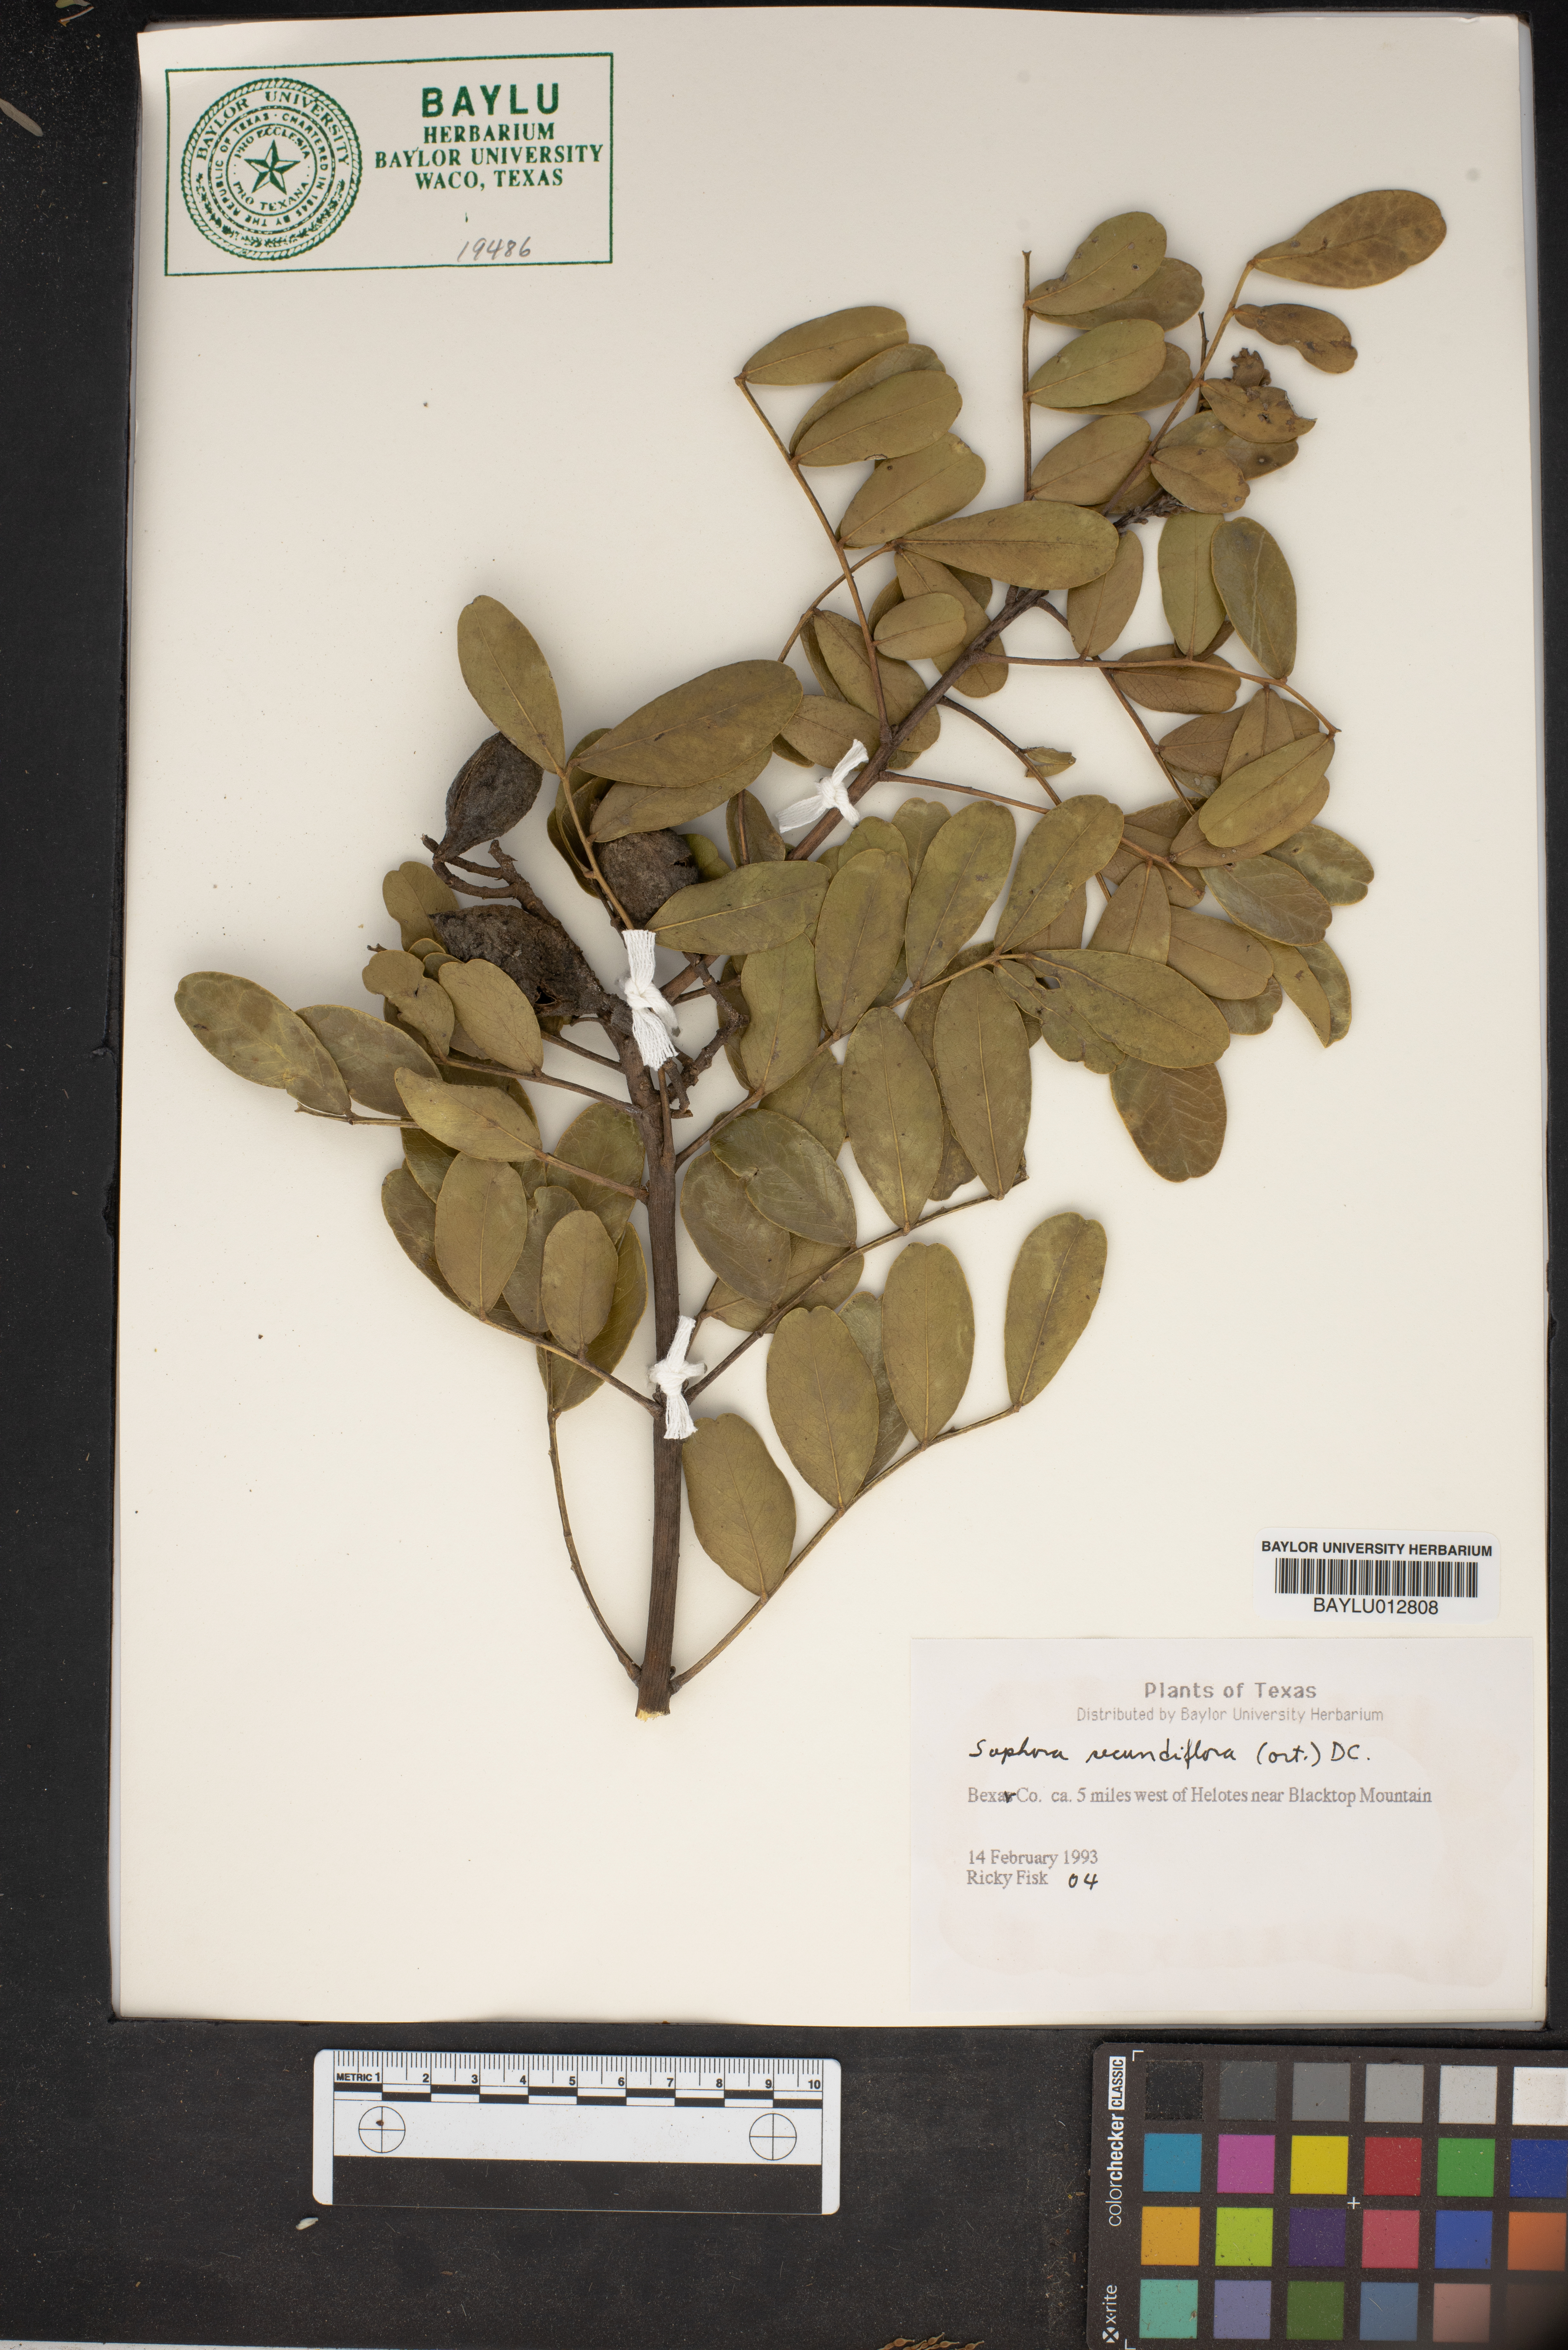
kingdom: Plantae
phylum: Tracheophyta
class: Magnoliopsida
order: Fabales
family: Fabaceae
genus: Dermatophyllum
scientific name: Dermatophyllum secundiflorum
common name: Texas-mountain-laurel
